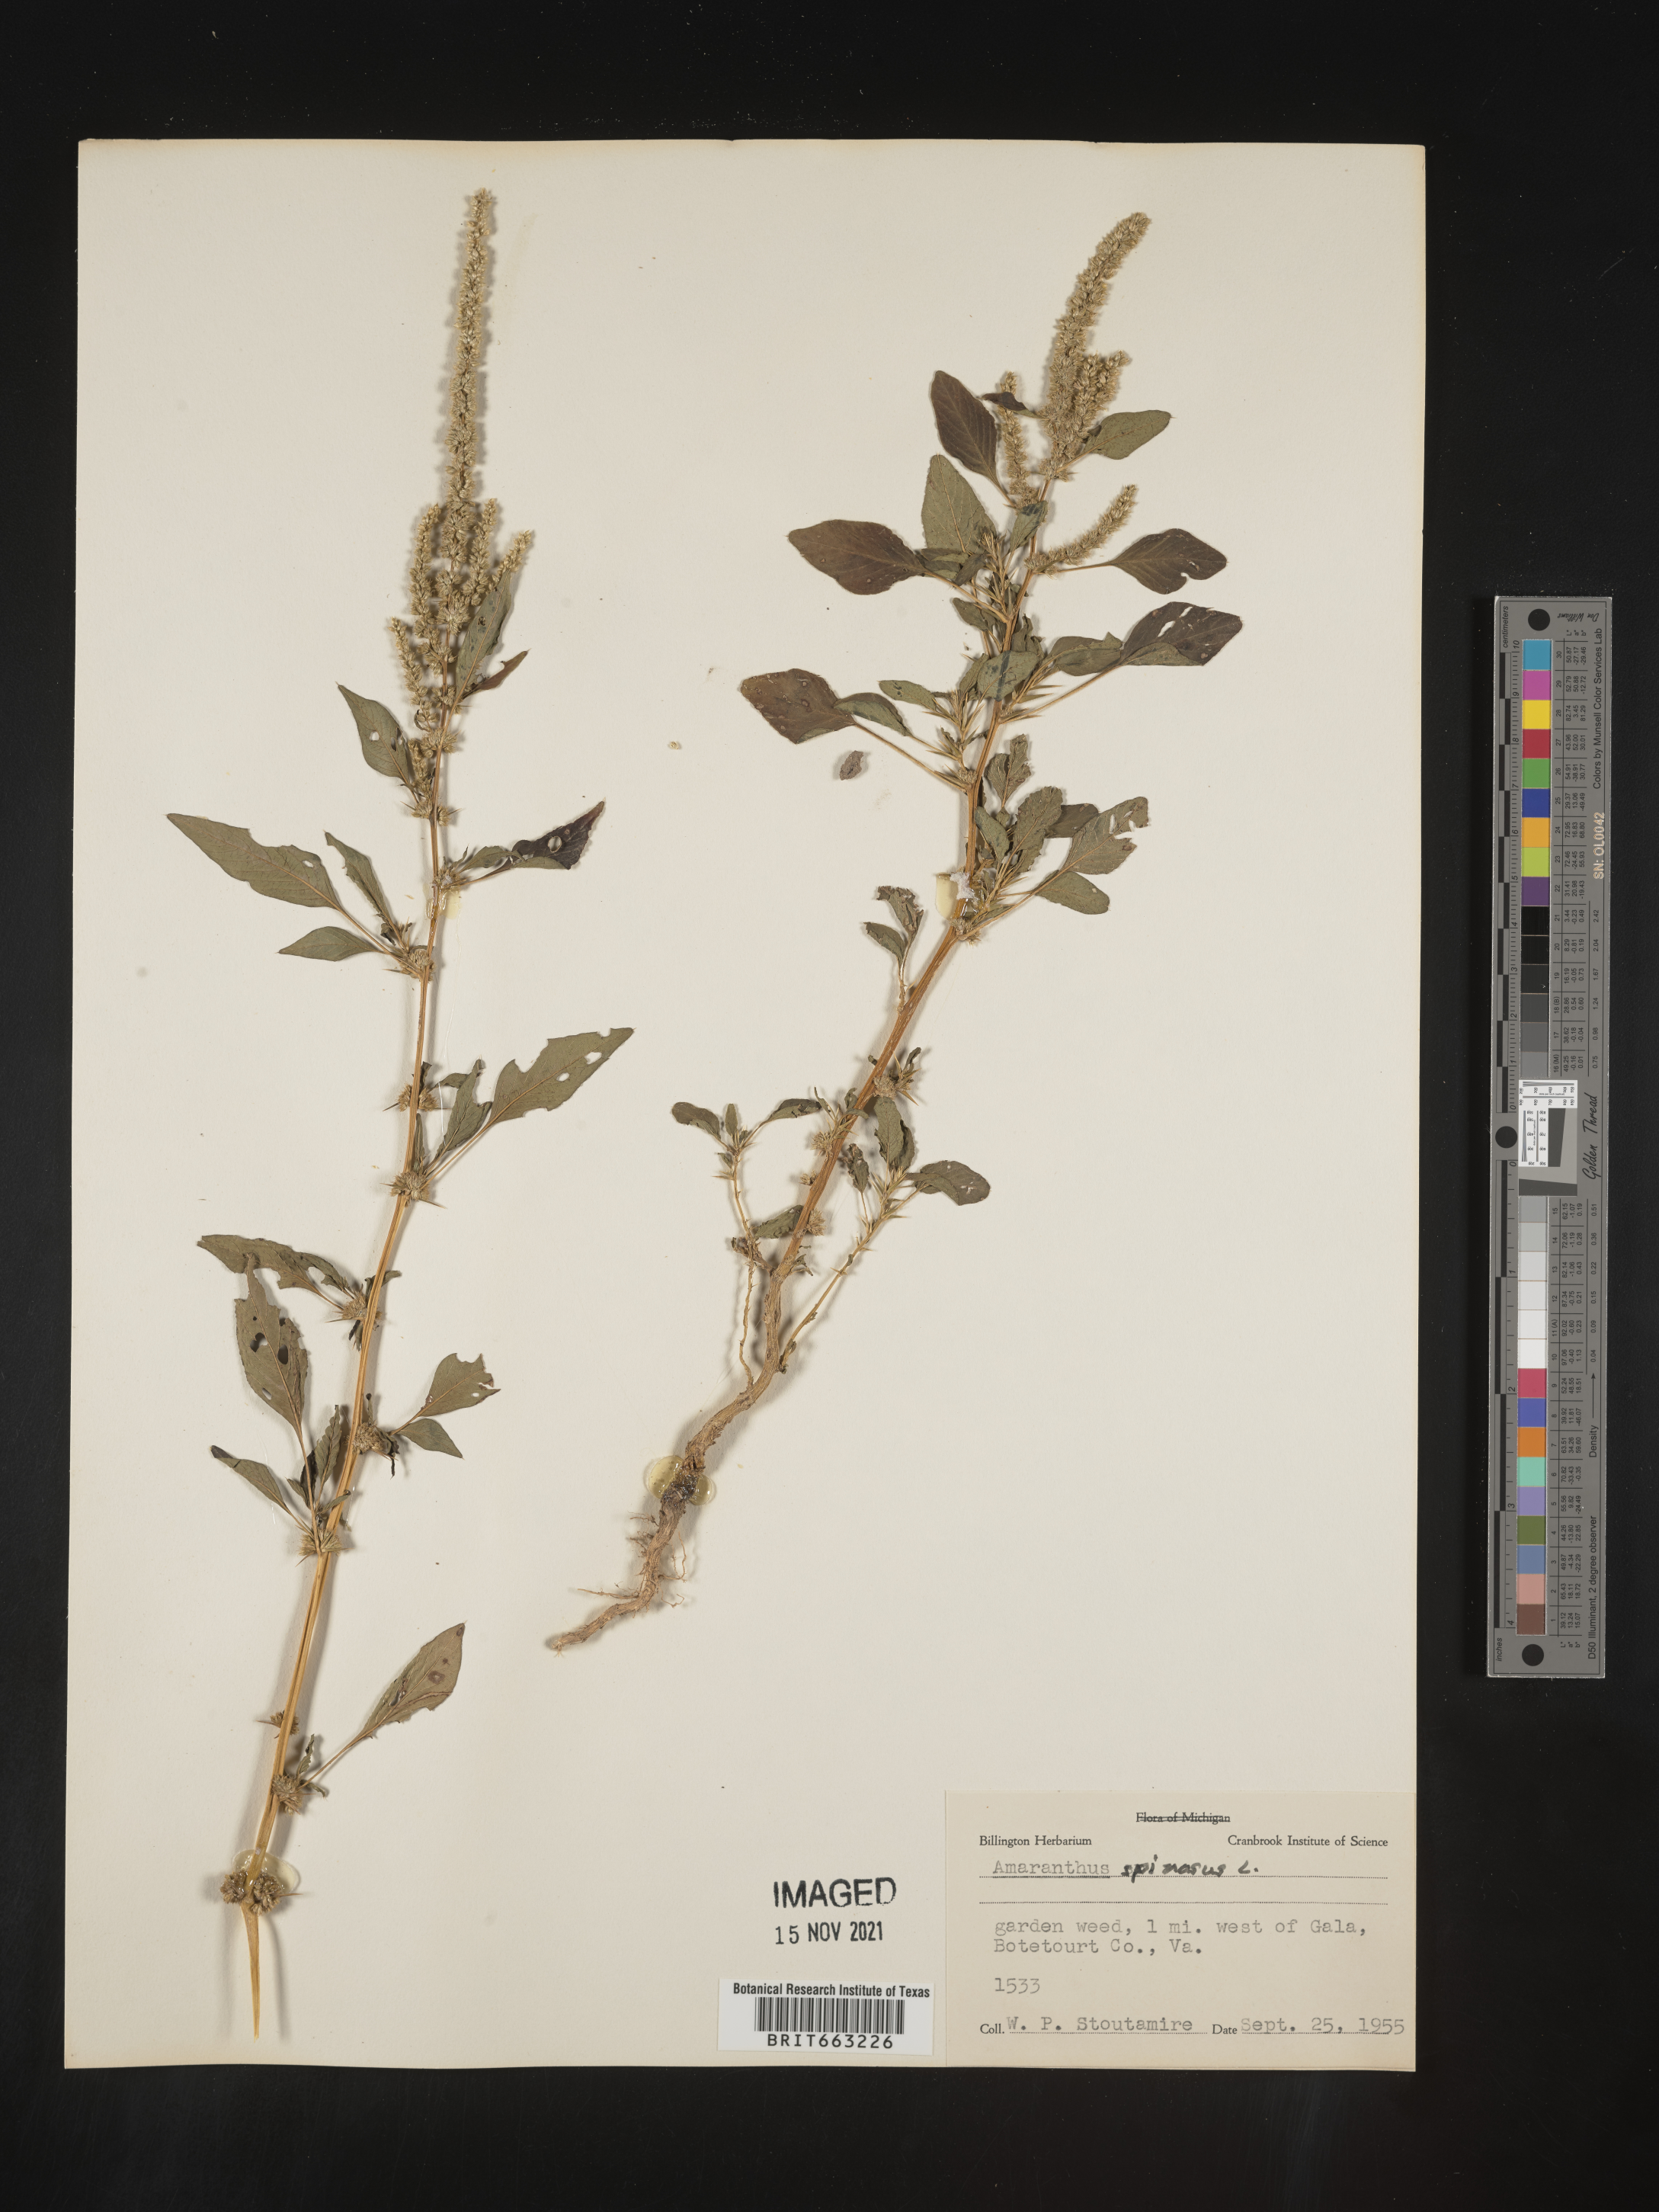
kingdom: Plantae
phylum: Tracheophyta
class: Magnoliopsida
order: Caryophyllales
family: Amaranthaceae
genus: Amaranthus
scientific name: Amaranthus spinosus
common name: Spiny amaranth
